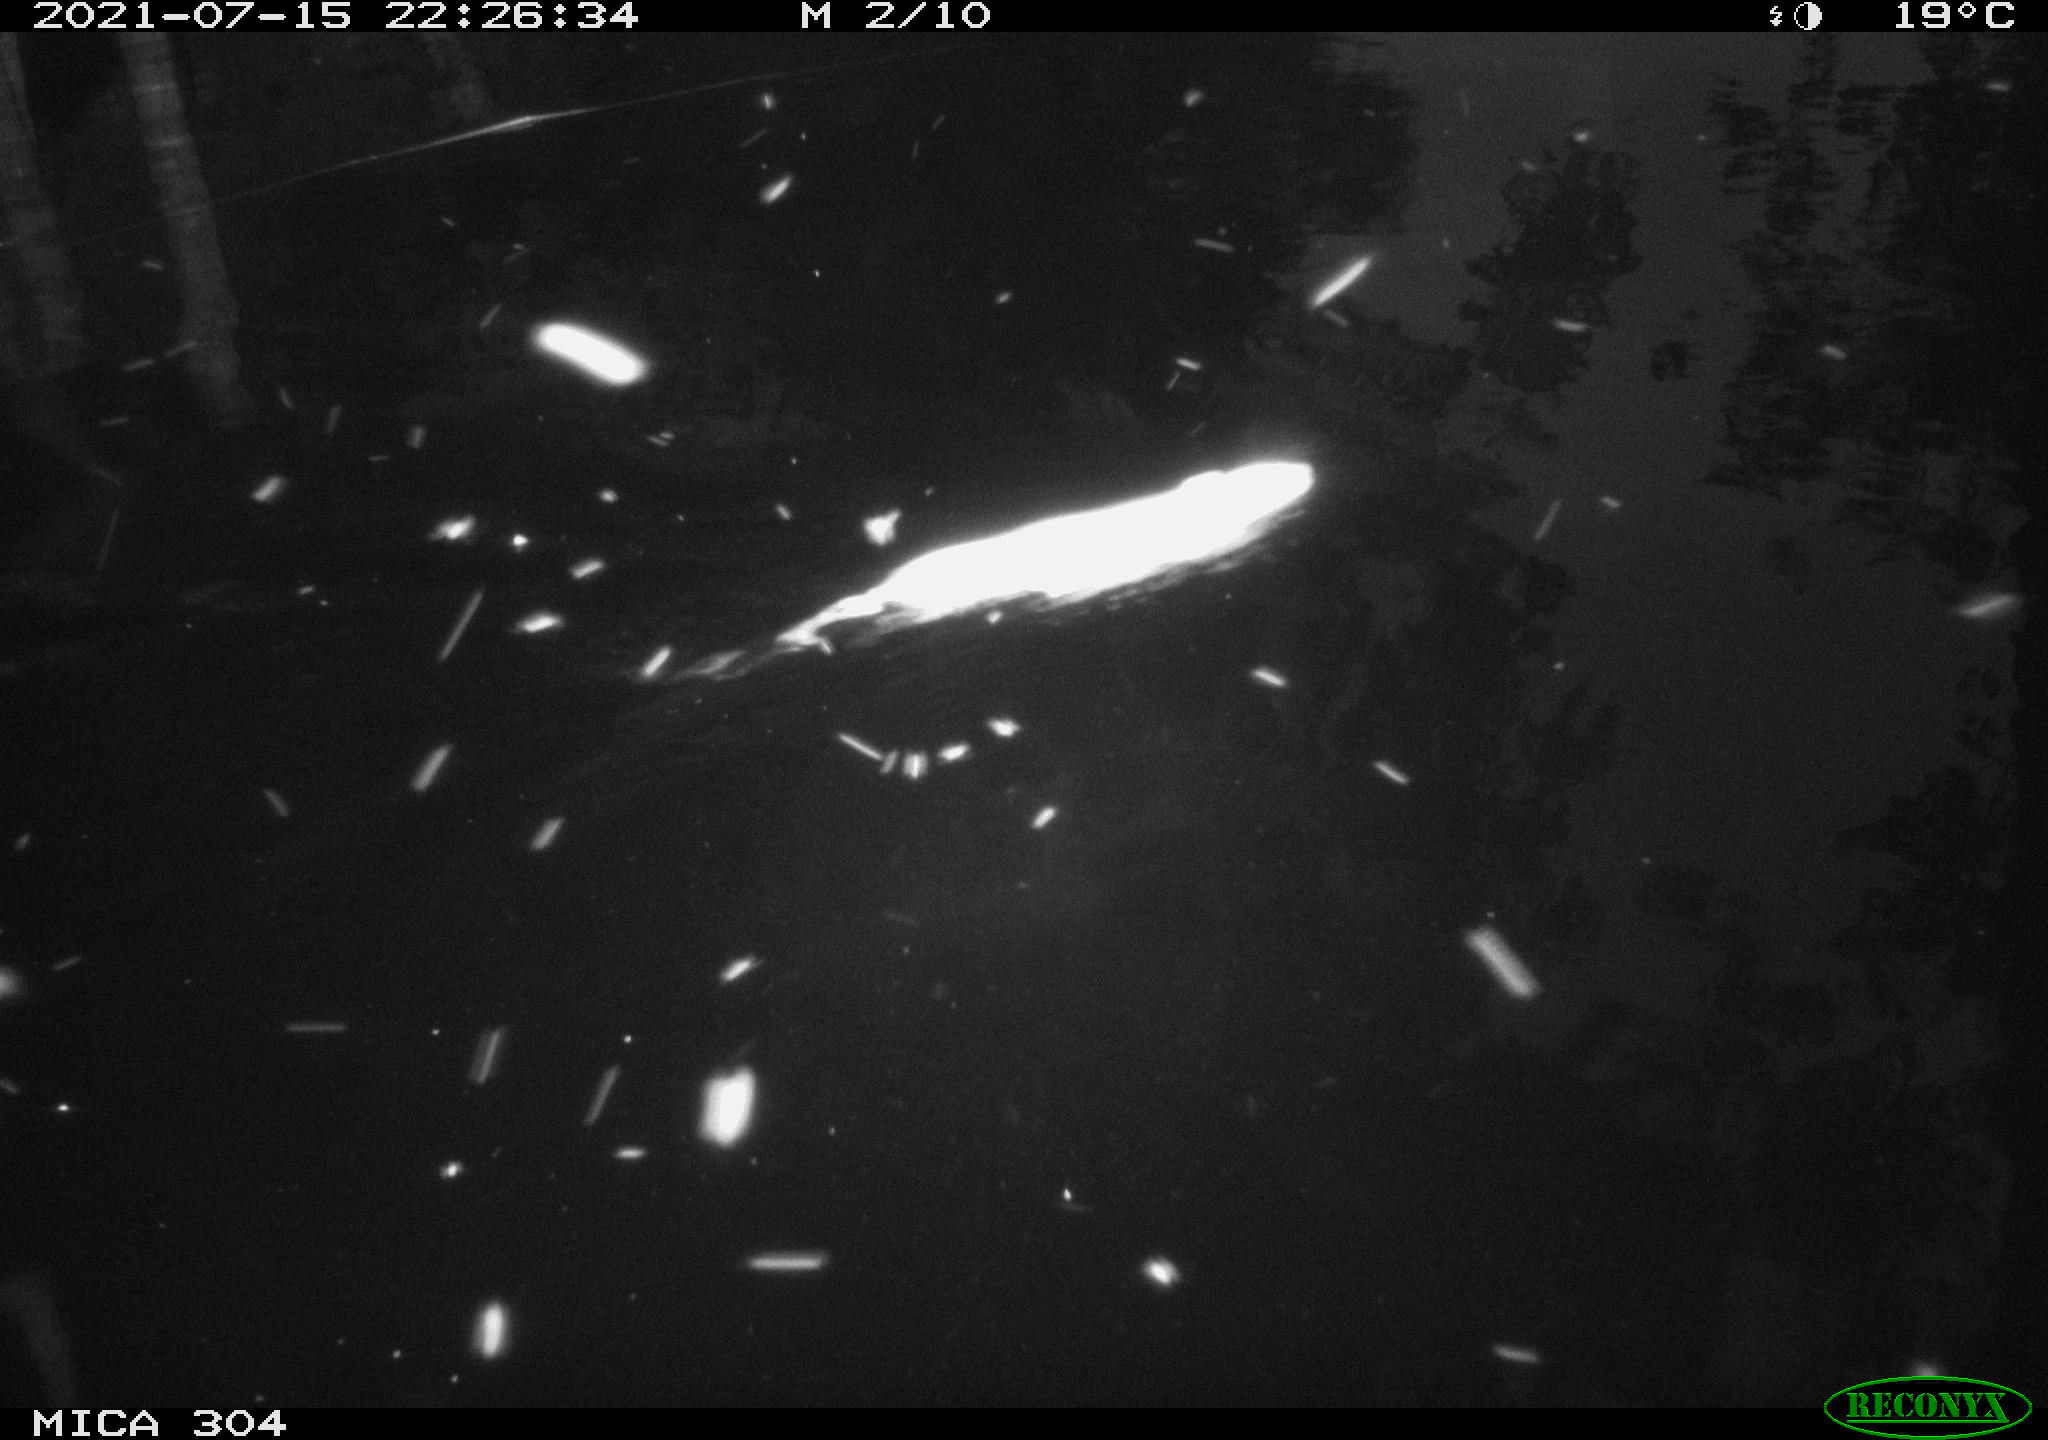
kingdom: Animalia
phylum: Chordata
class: Mammalia
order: Rodentia
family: Muridae
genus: Rattus
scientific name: Rattus norvegicus
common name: Brown rat
